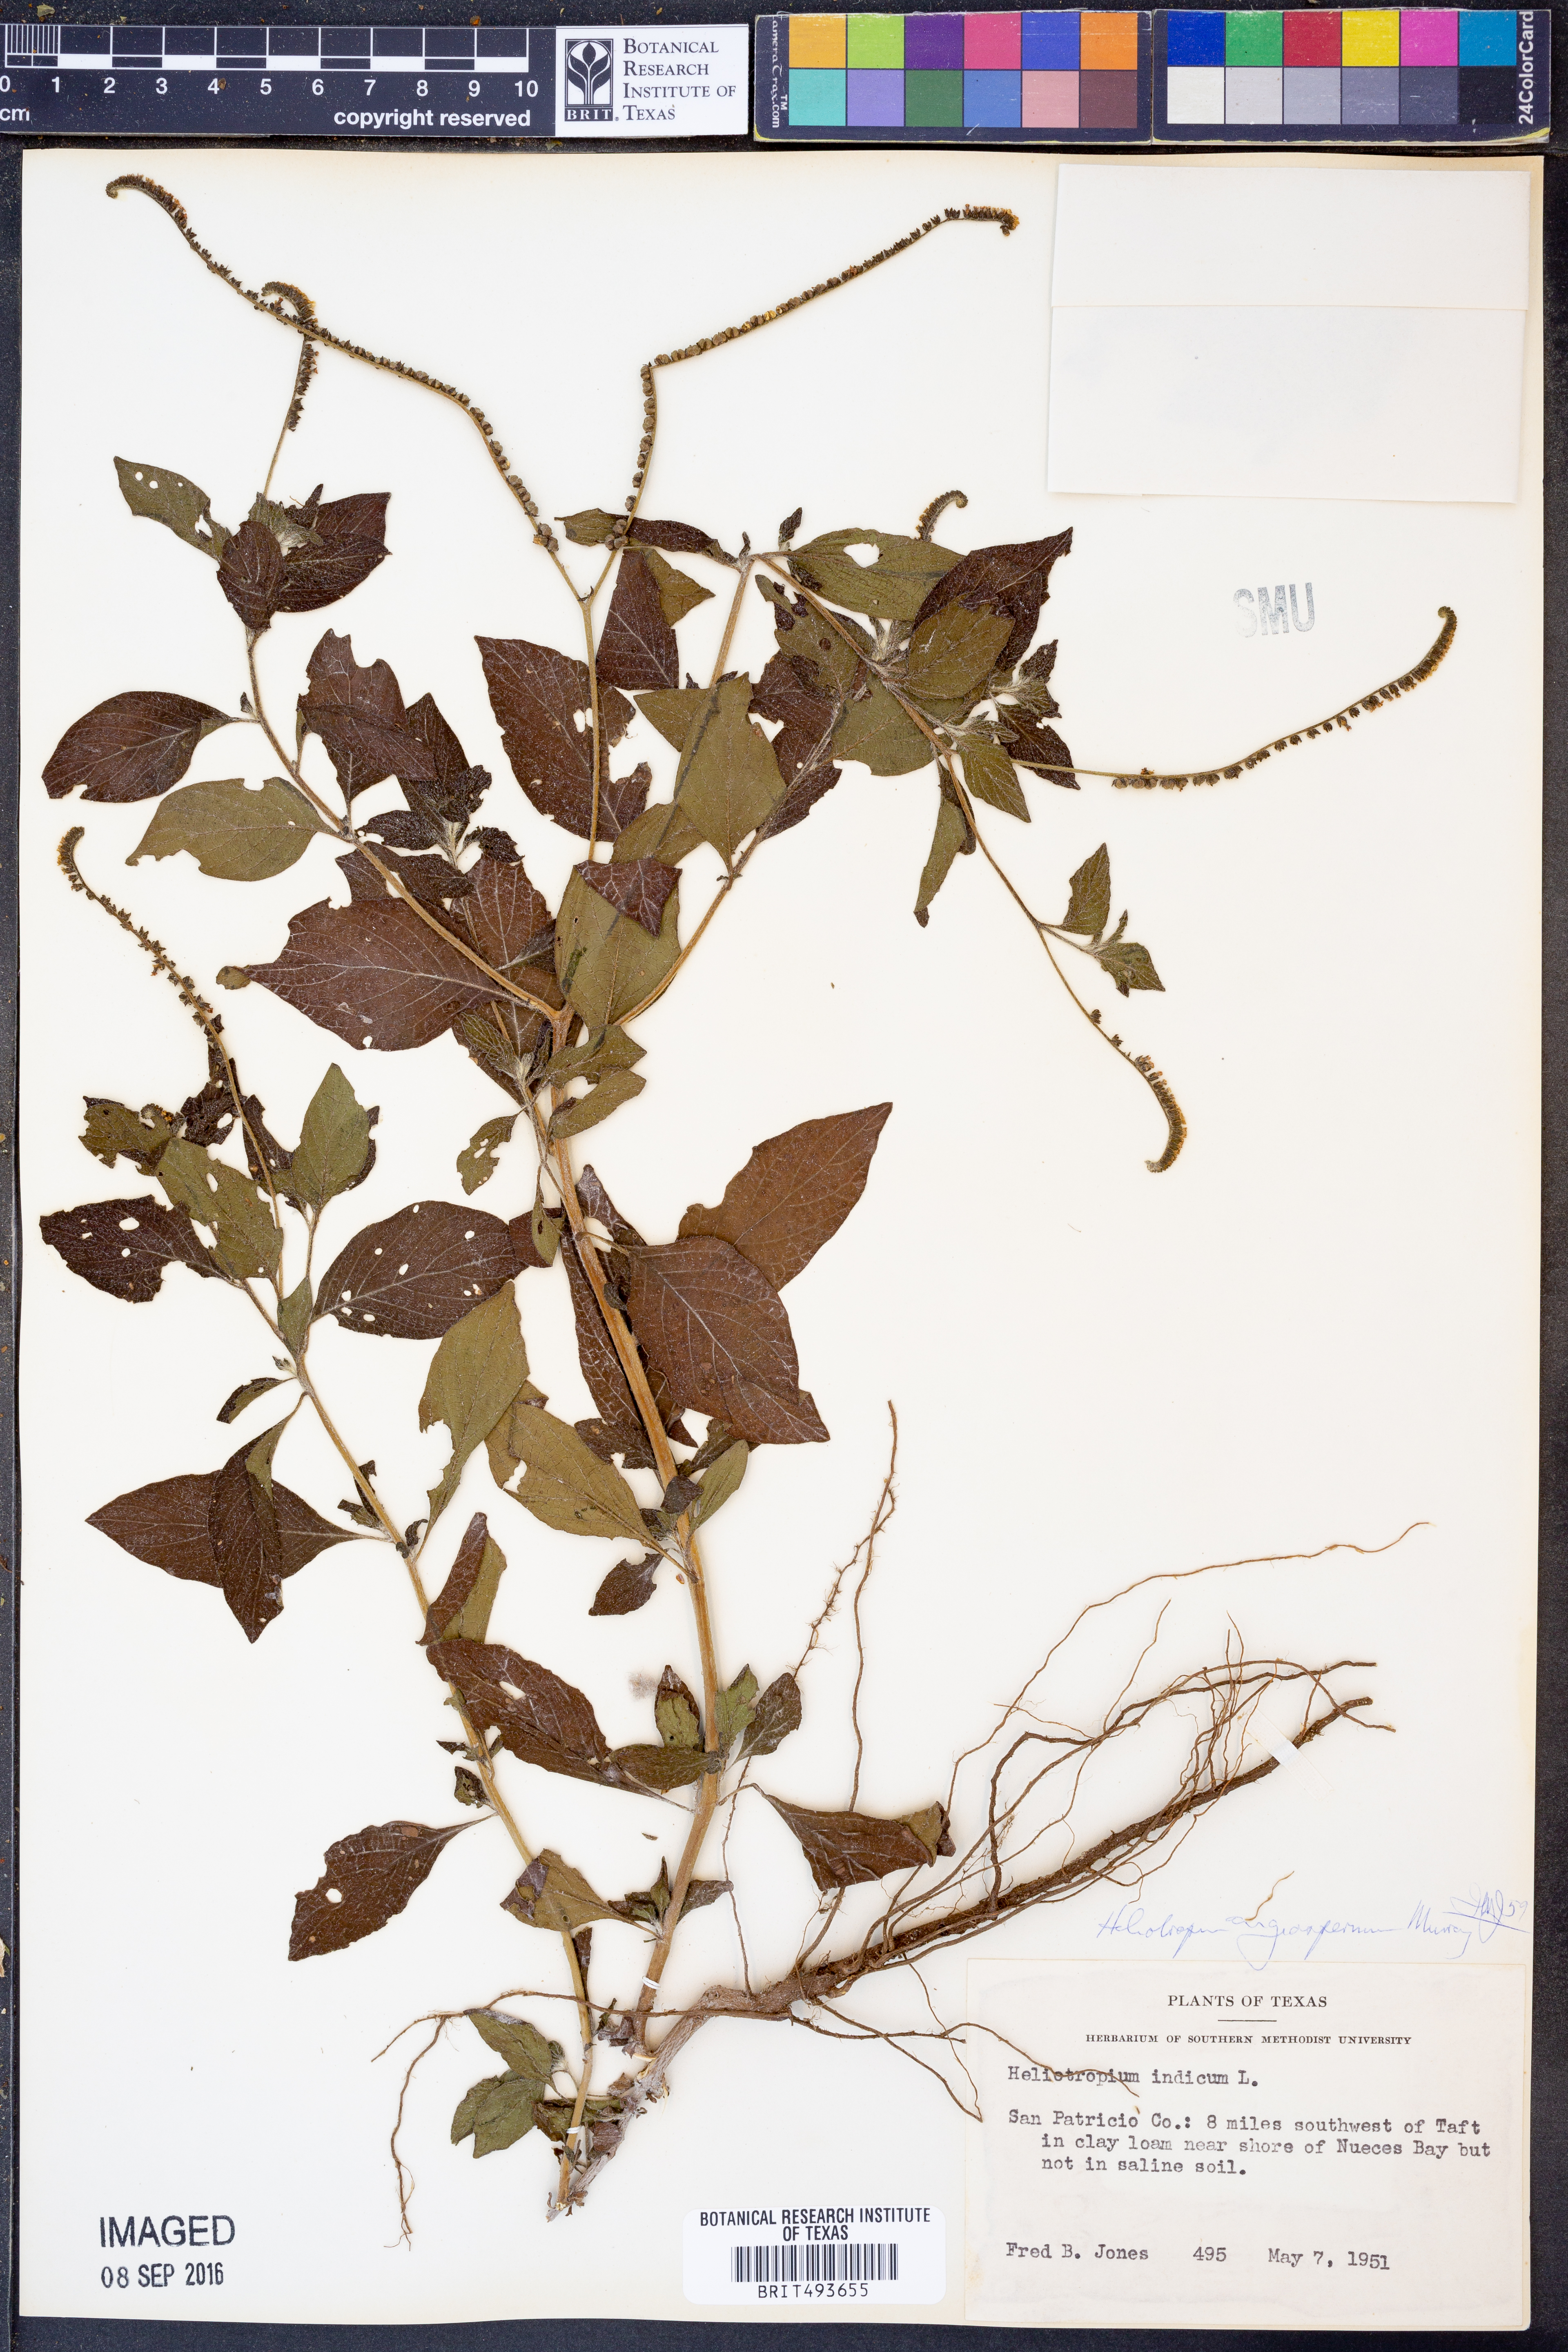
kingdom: Plantae
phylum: Tracheophyta
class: Magnoliopsida
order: Boraginales
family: Heliotropiaceae
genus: Heliotropium
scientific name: Heliotropium indicum
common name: Indian heliotrope
